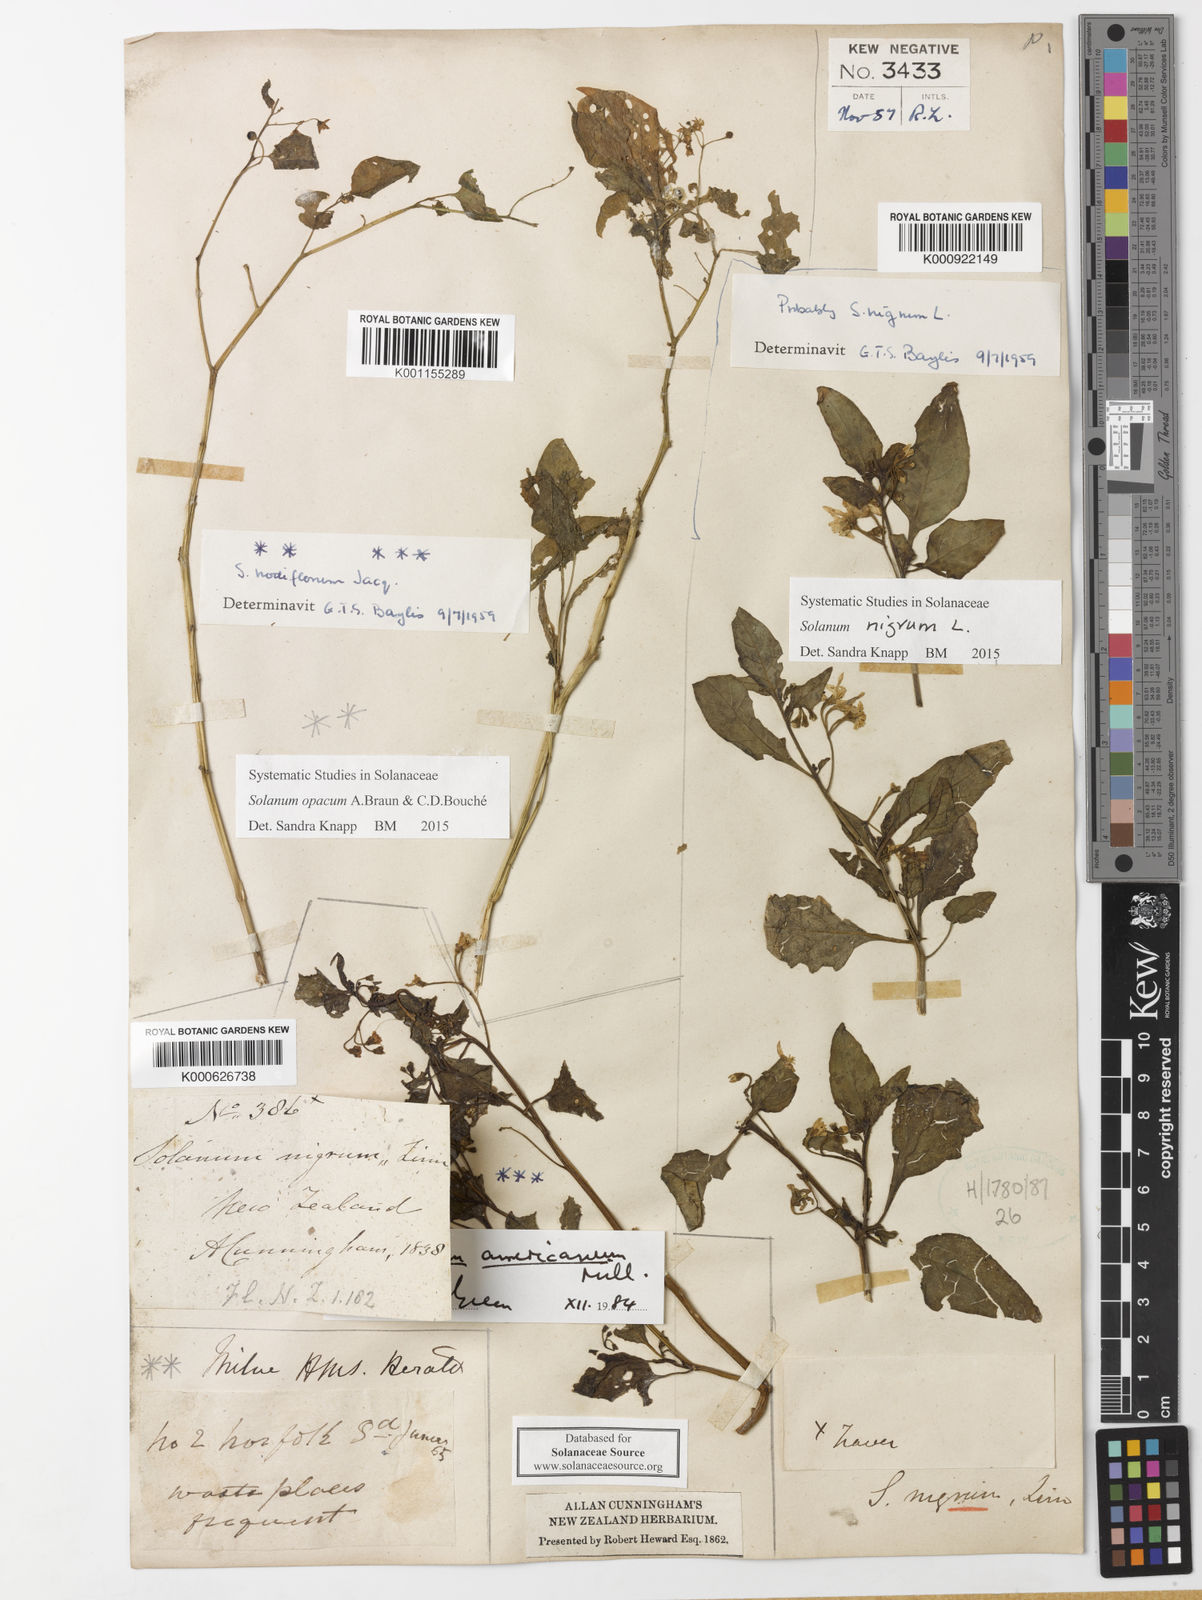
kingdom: Plantae
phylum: Tracheophyta
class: Magnoliopsida
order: Solanales
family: Solanaceae
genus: Solanum
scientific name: Solanum nigrum
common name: Black nightshade
